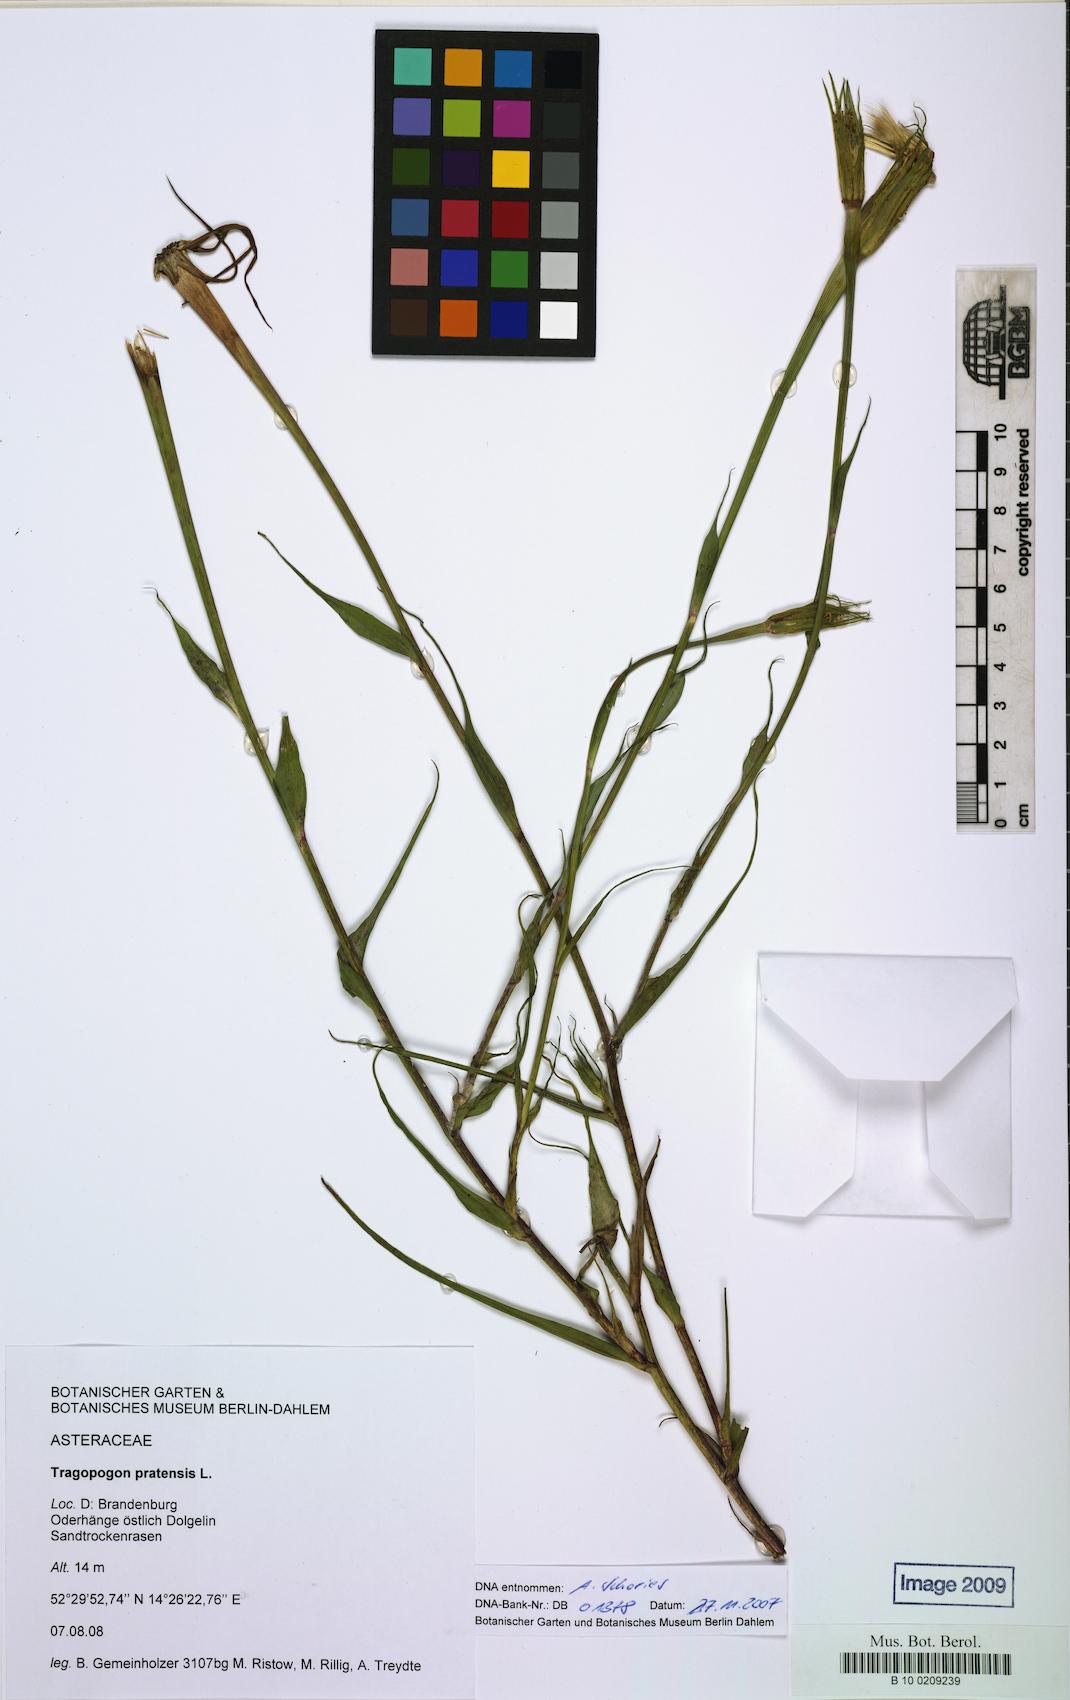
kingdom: Plantae
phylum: Tracheophyta
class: Magnoliopsida
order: Asterales
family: Asteraceae
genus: Tragopogon
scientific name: Tragopogon pratensis
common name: Goat's-beard
